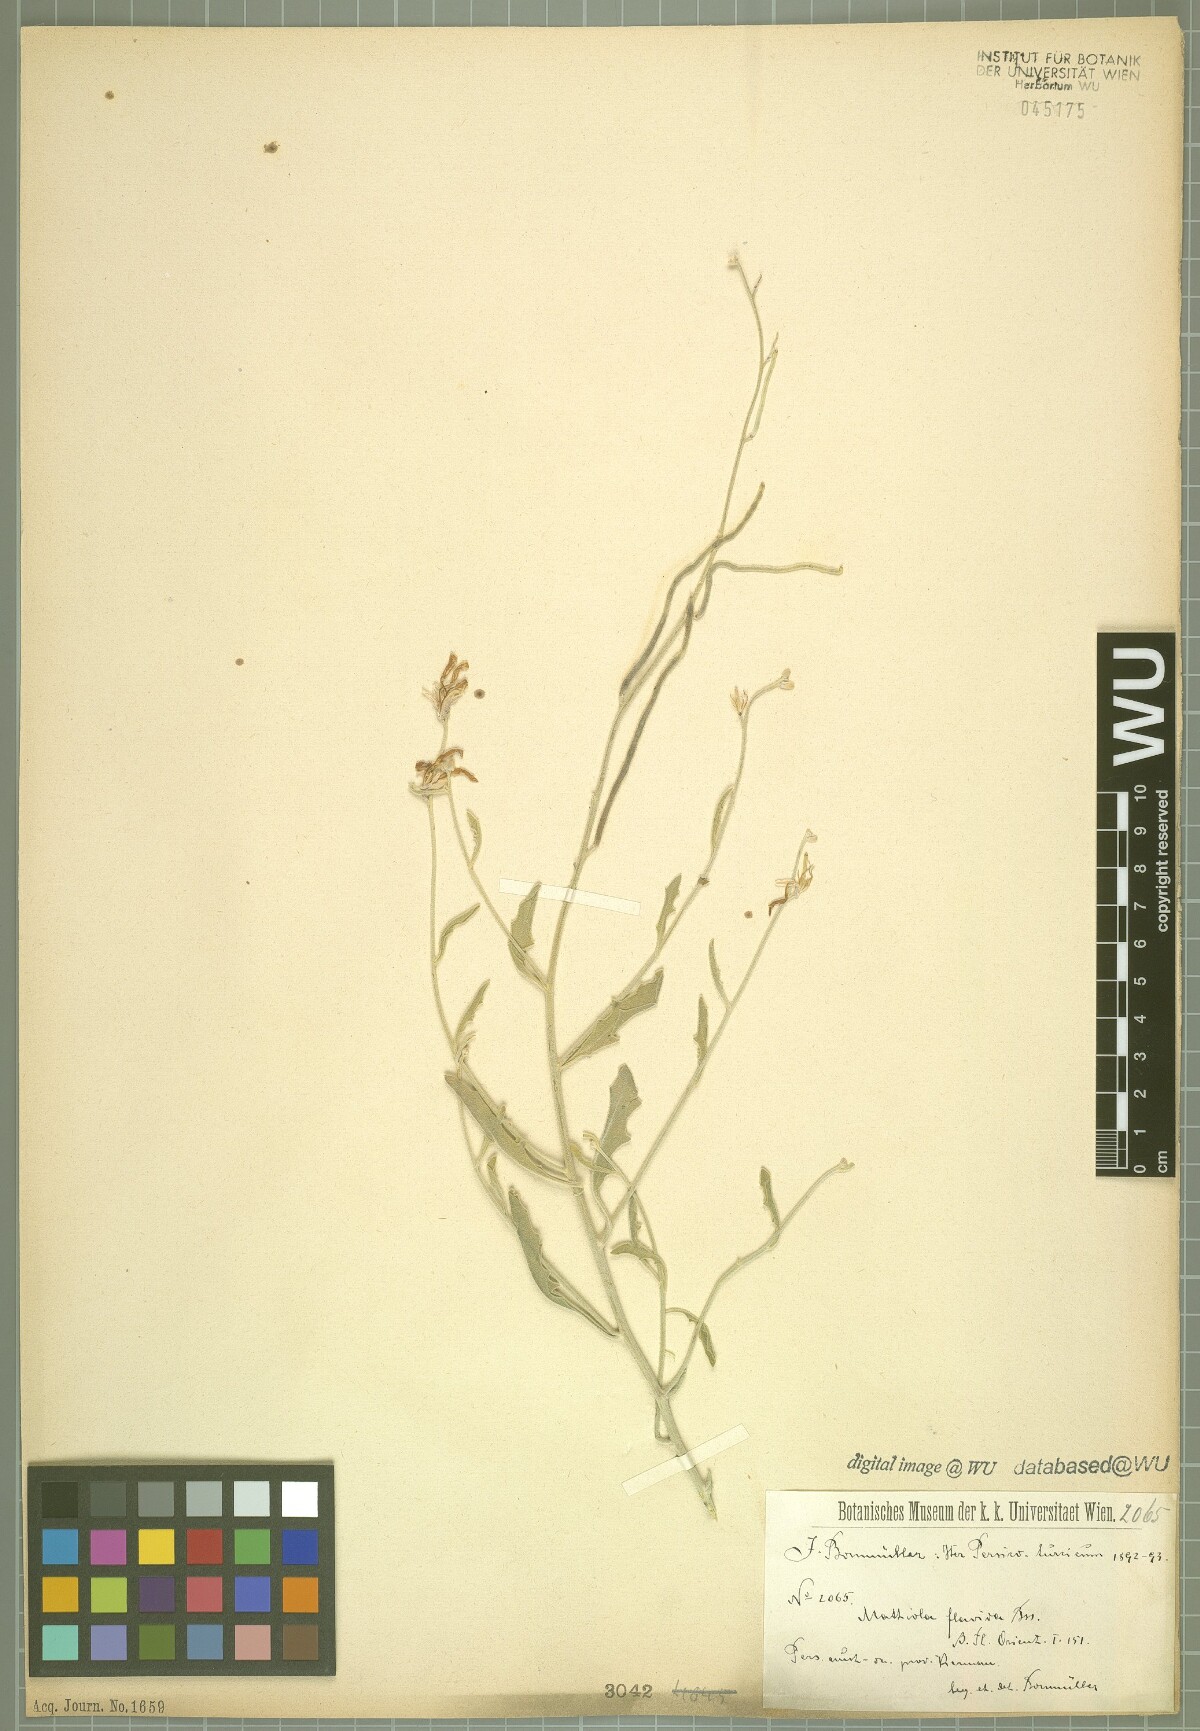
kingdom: Plantae
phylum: Tracheophyta
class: Magnoliopsida
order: Brassicales
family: Brassicaceae
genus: Matthiola
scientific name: Matthiola flavida
